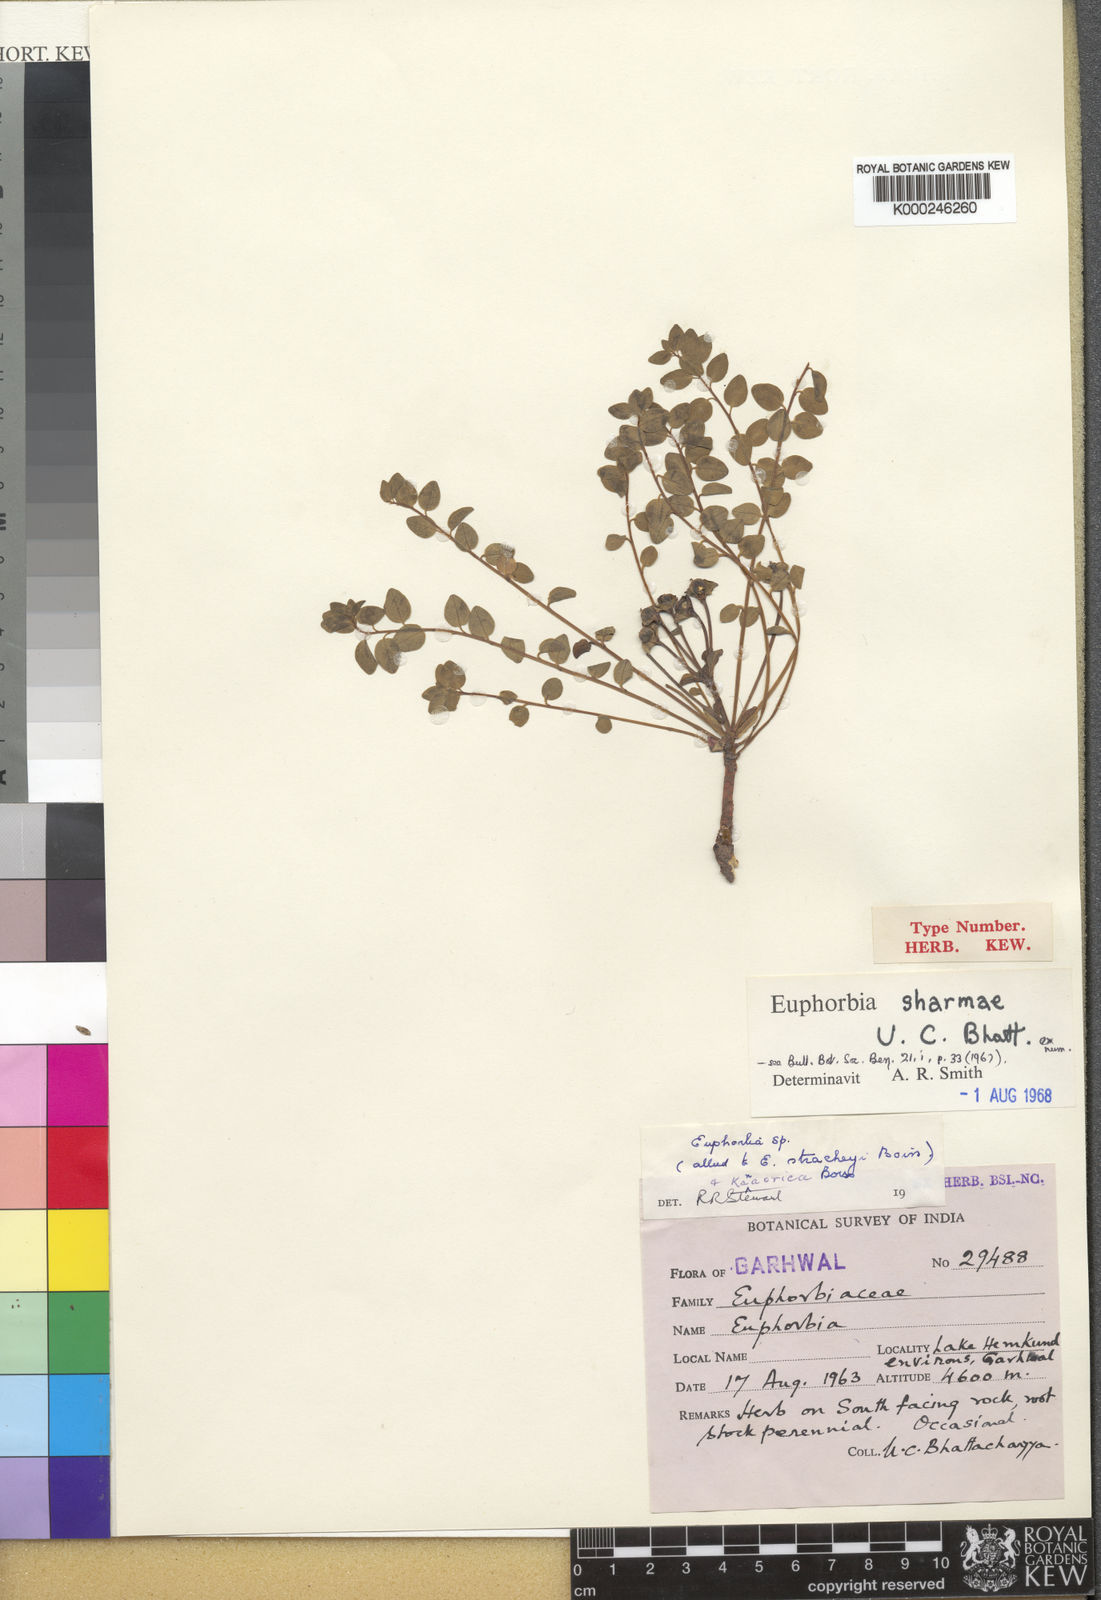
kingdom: Plantae
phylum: Tracheophyta
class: Magnoliopsida
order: Malpighiales
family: Euphorbiaceae
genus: Euphorbia
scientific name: Euphorbia
